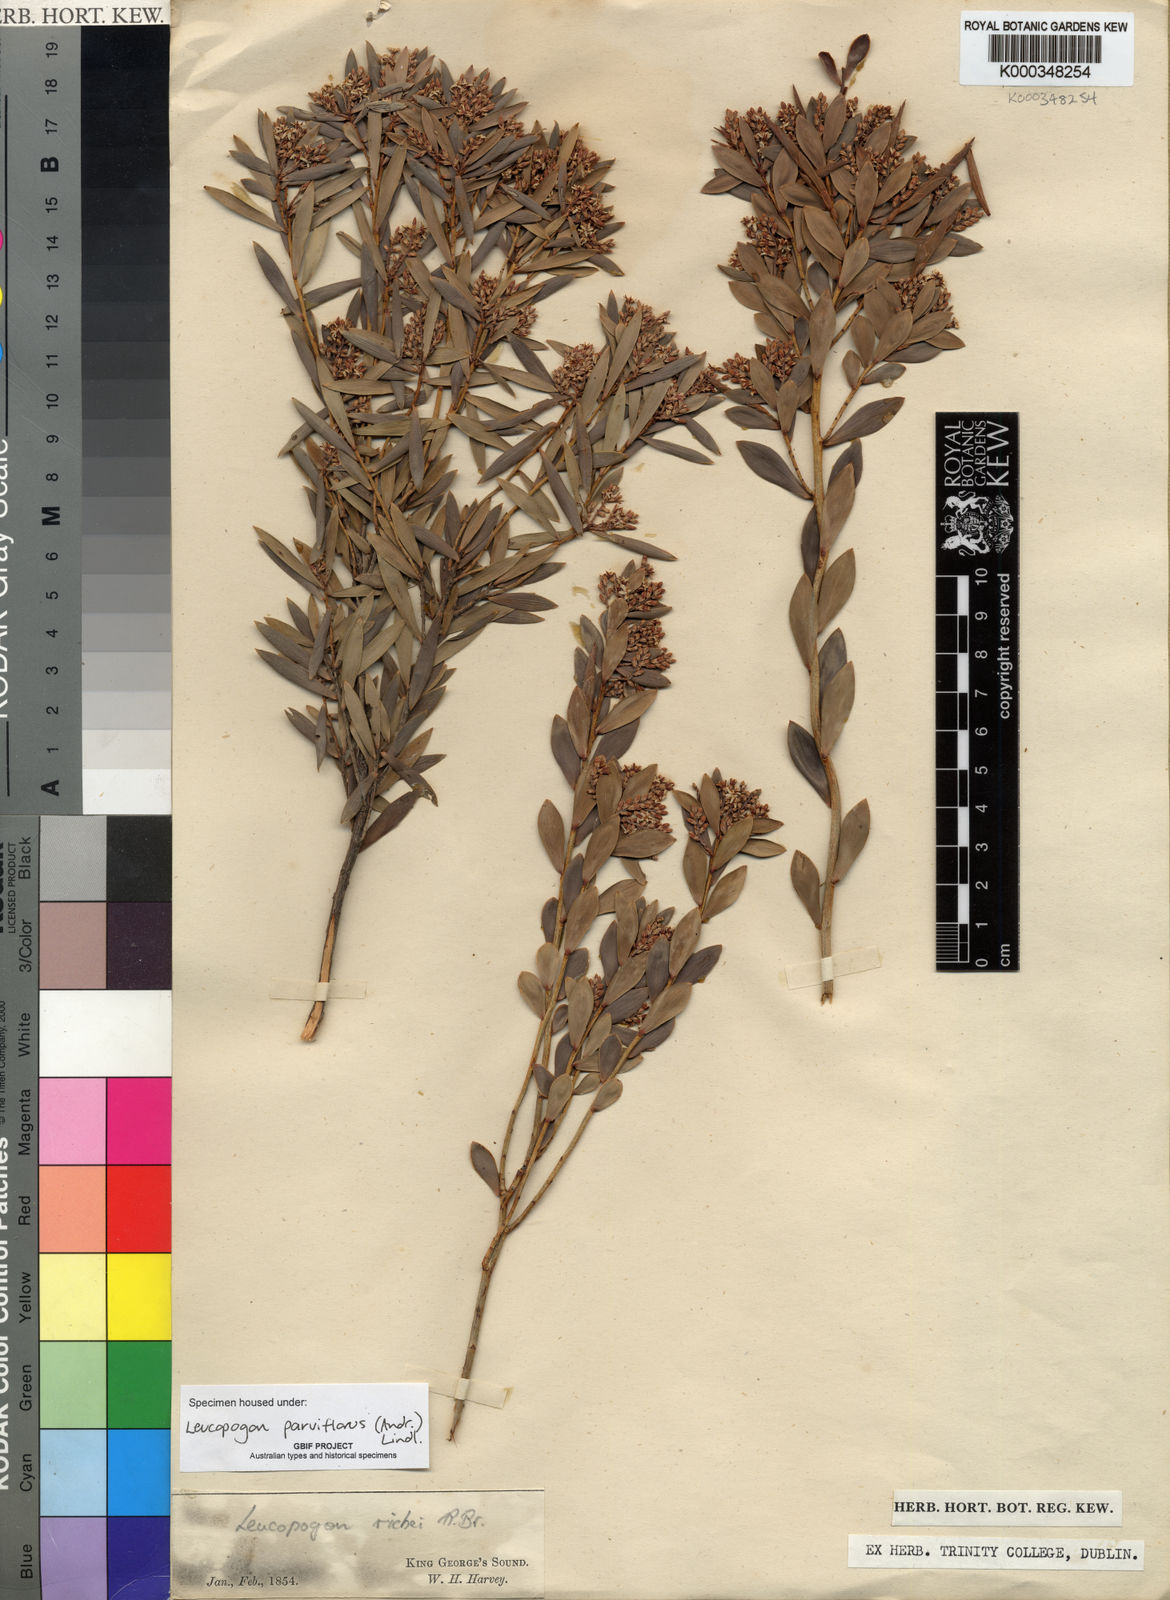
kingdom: Plantae
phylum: Tracheophyta
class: Magnoliopsida
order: Ericales
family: Ericaceae
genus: Leptecophylla
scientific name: Leptecophylla parvifolia
